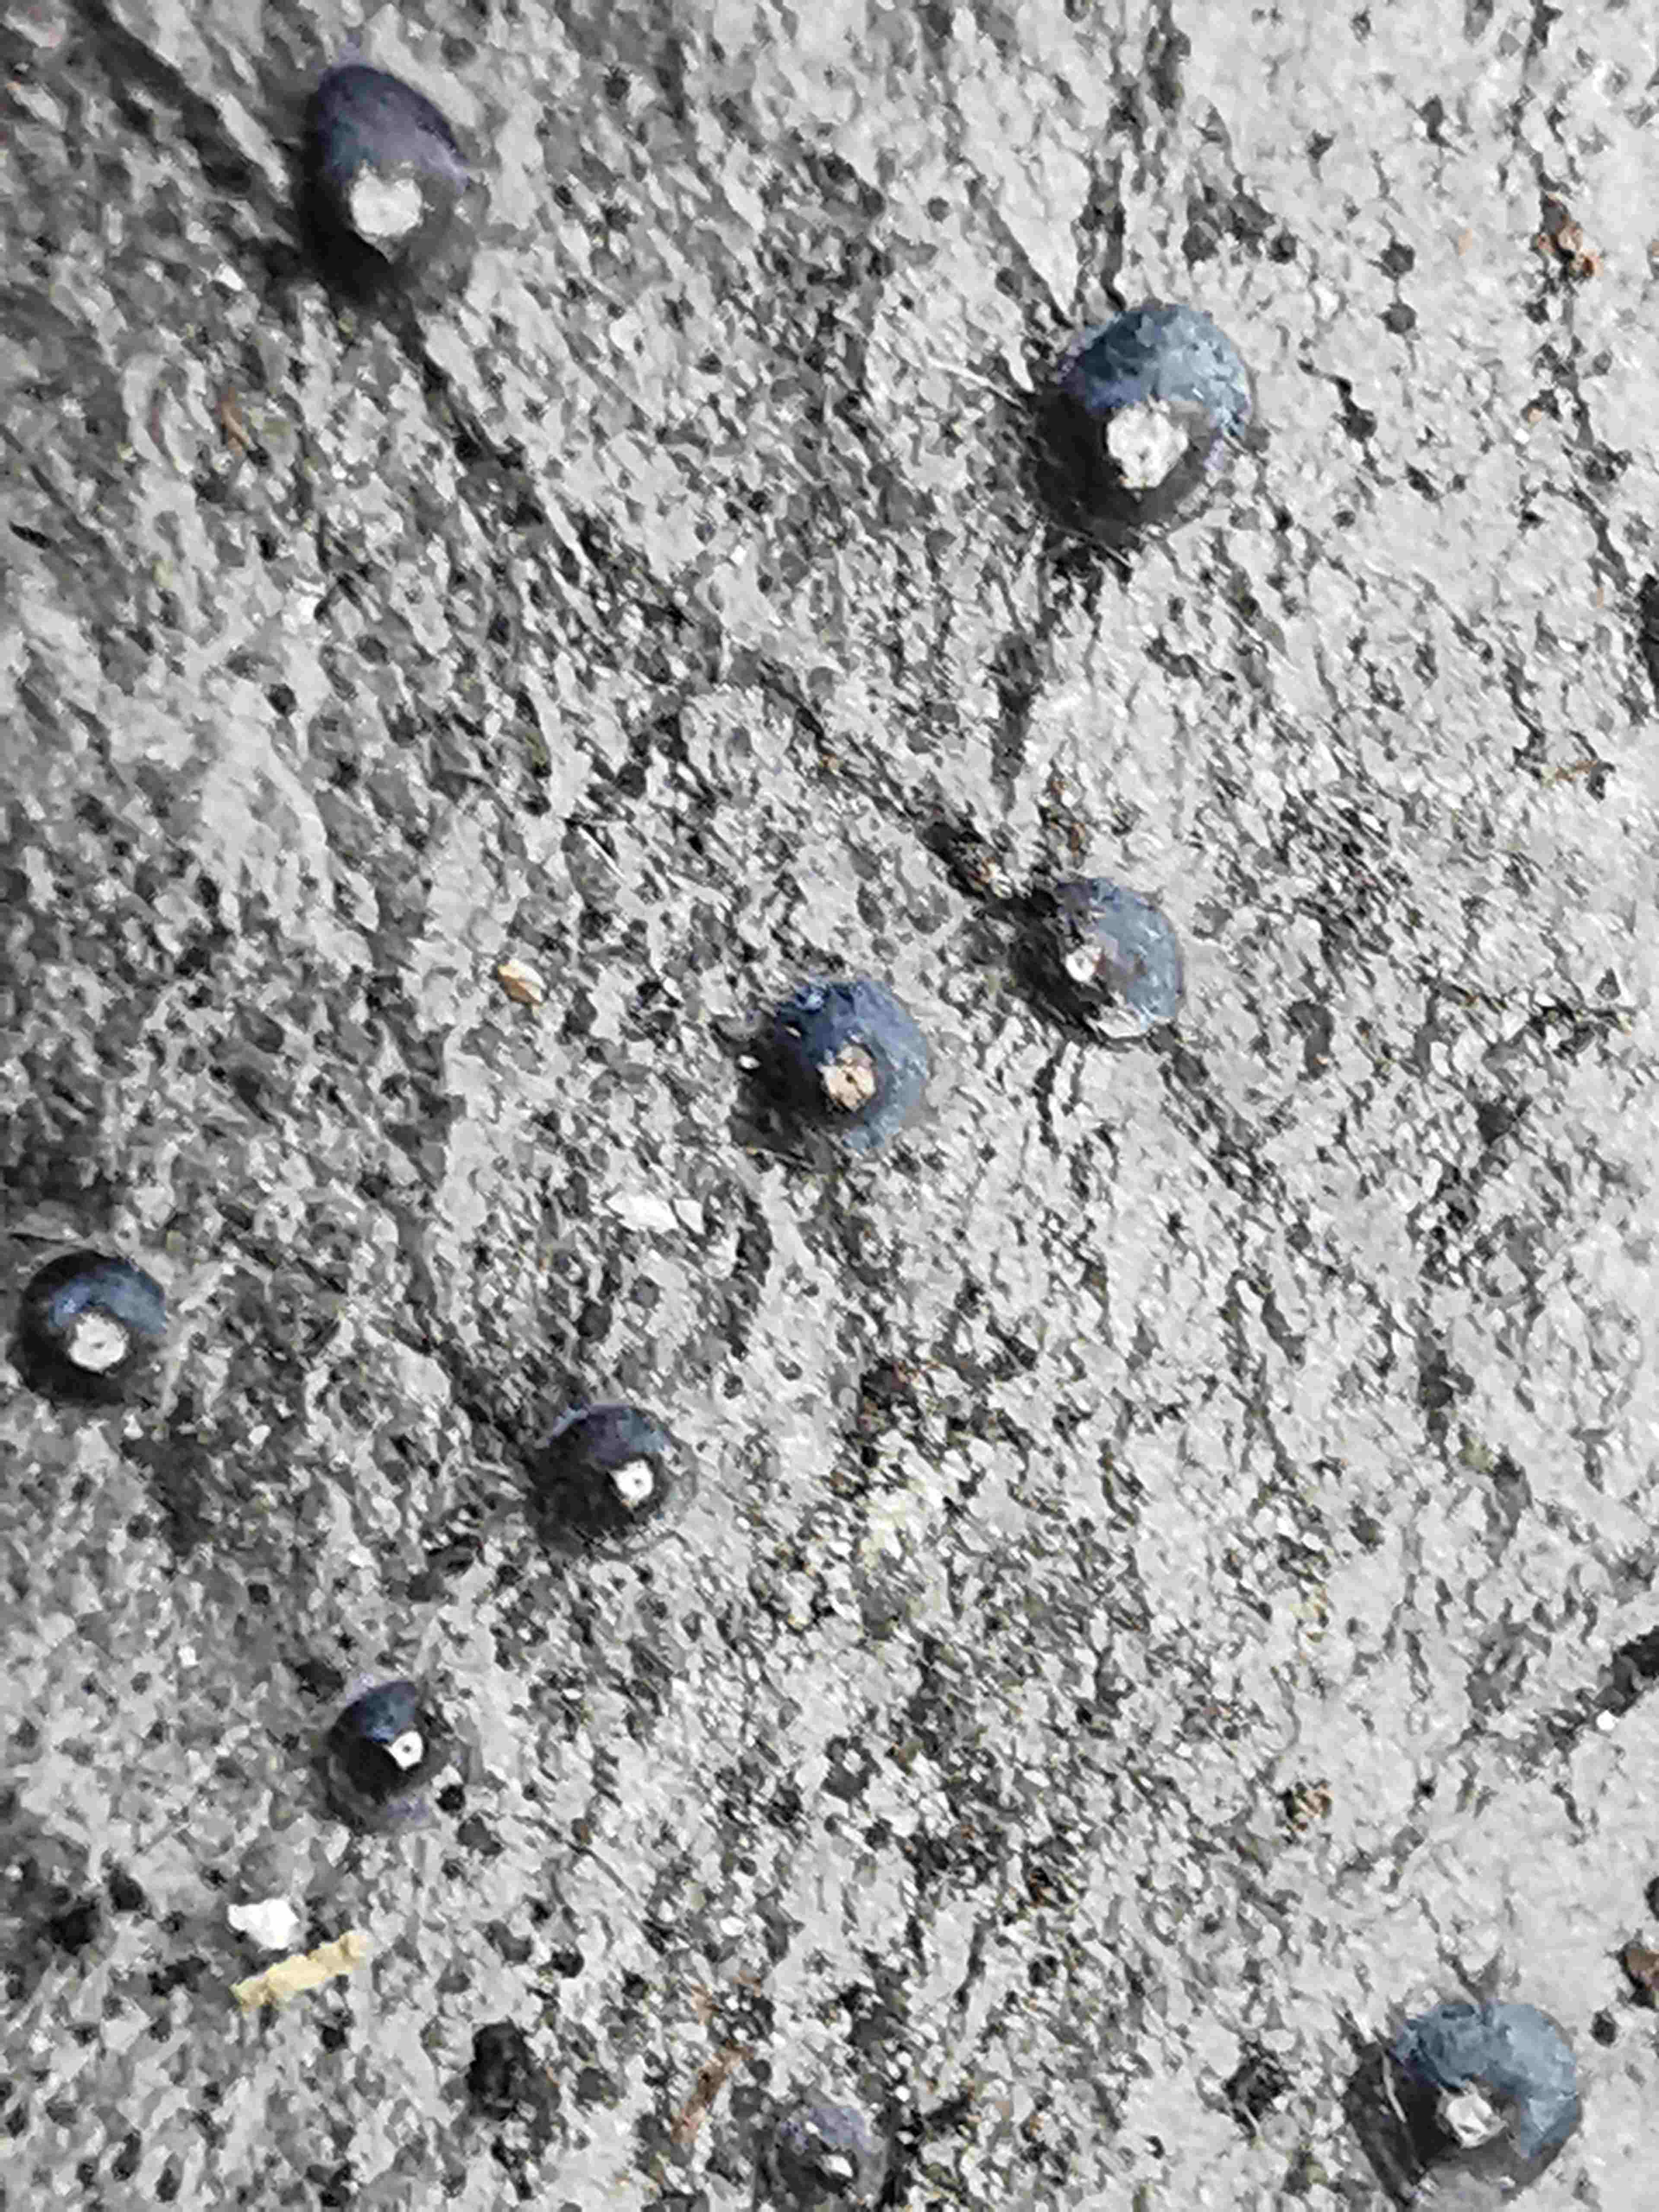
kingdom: Fungi
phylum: Ascomycota
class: Leotiomycetes
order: Phacidiales
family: Phacidiaceae
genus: Phacidium
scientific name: Phacidium lauri
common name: kristtorn-tandskive
